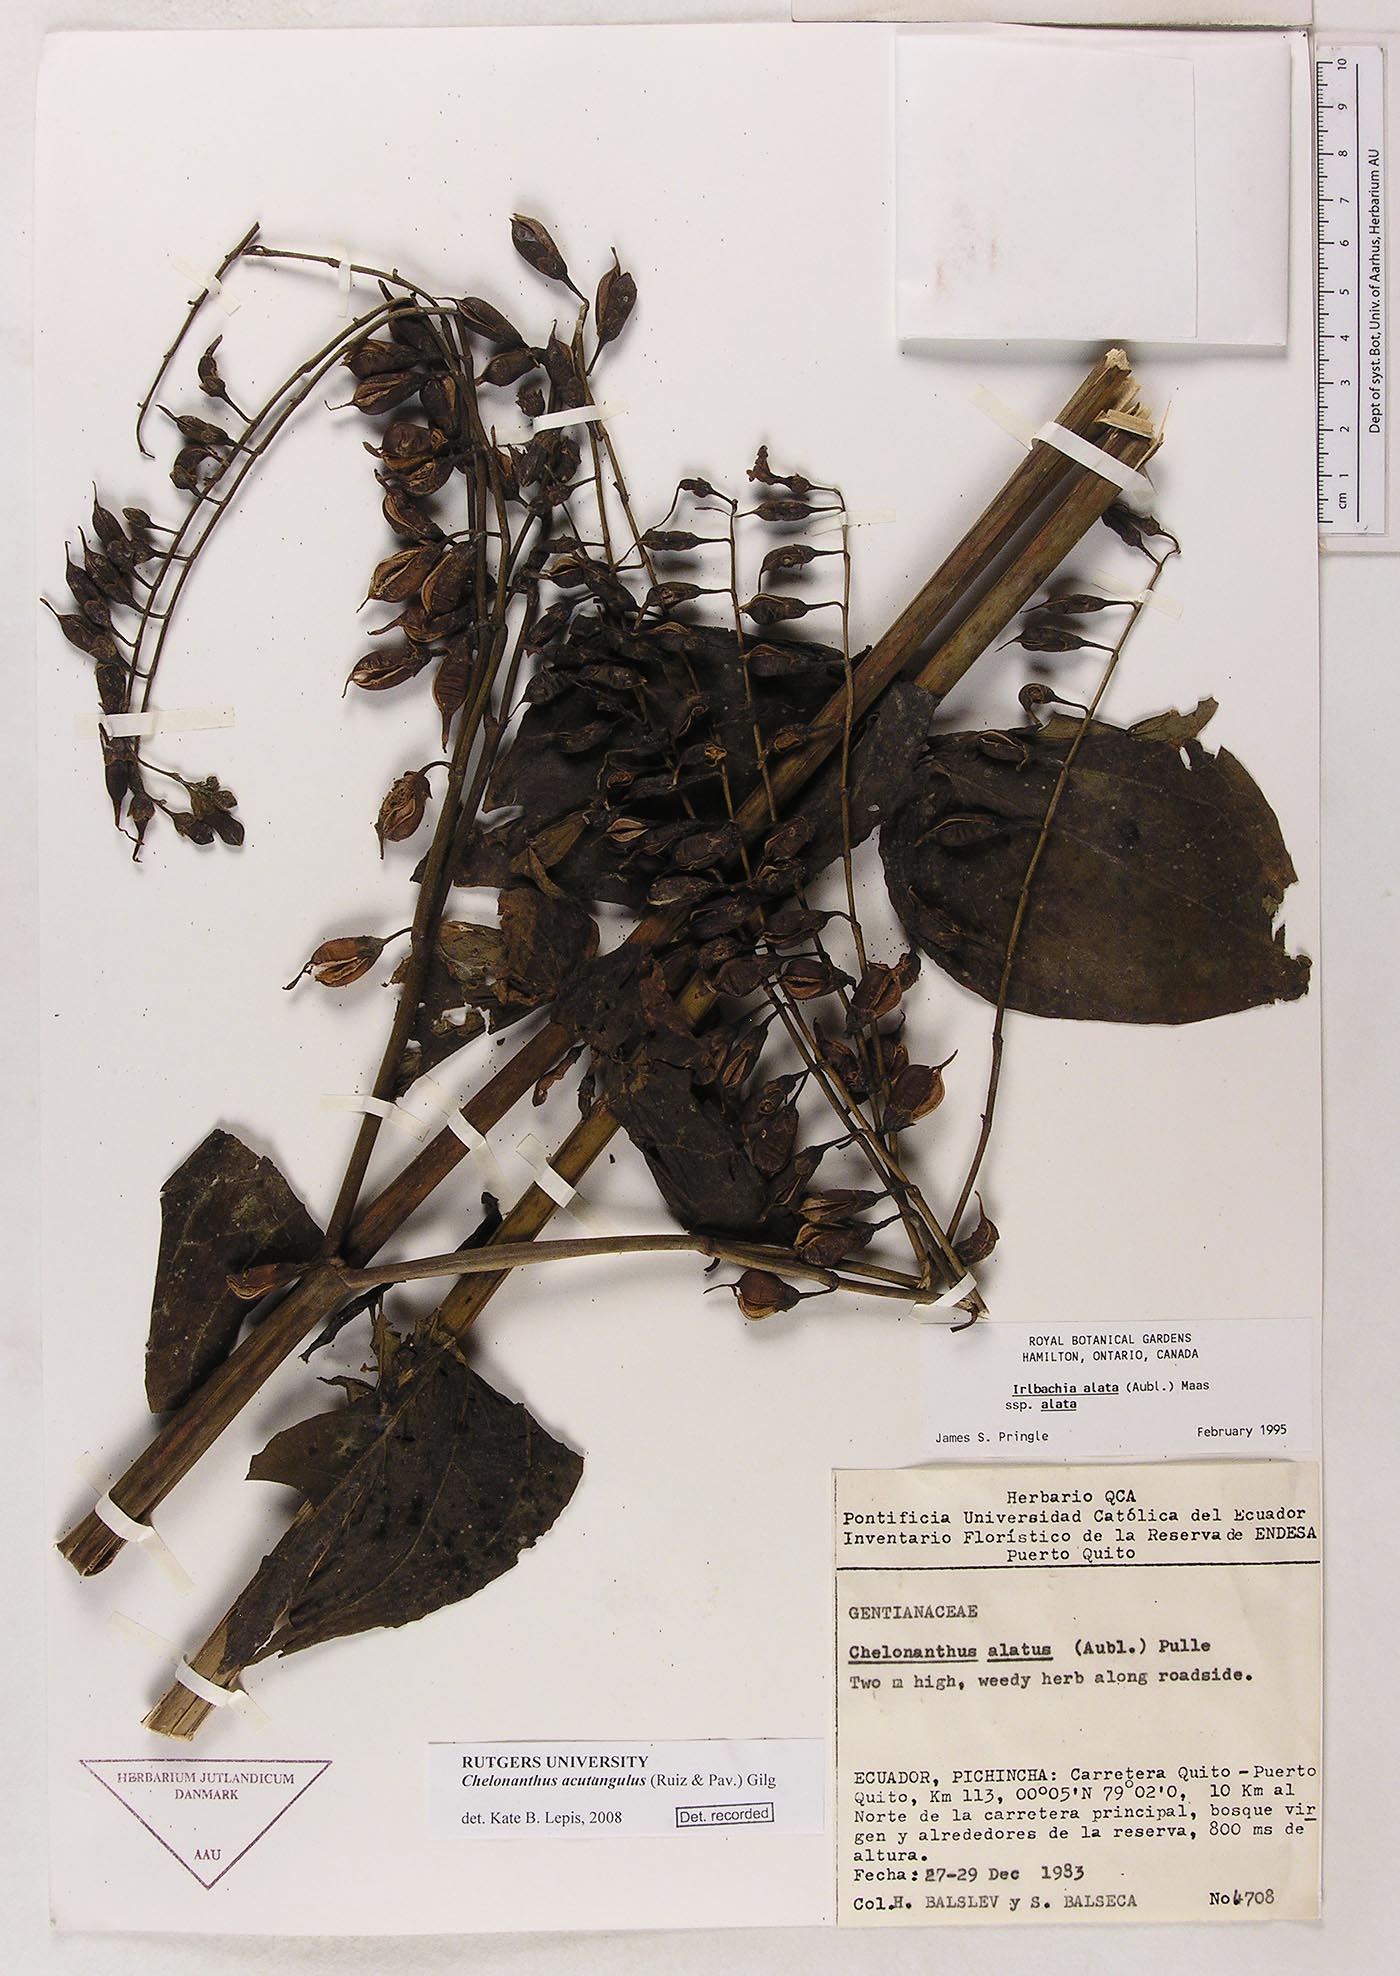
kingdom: Plantae
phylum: Tracheophyta
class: Magnoliopsida
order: Gentianales
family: Gentianaceae
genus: Chelonanthus
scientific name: Chelonanthus alatus
